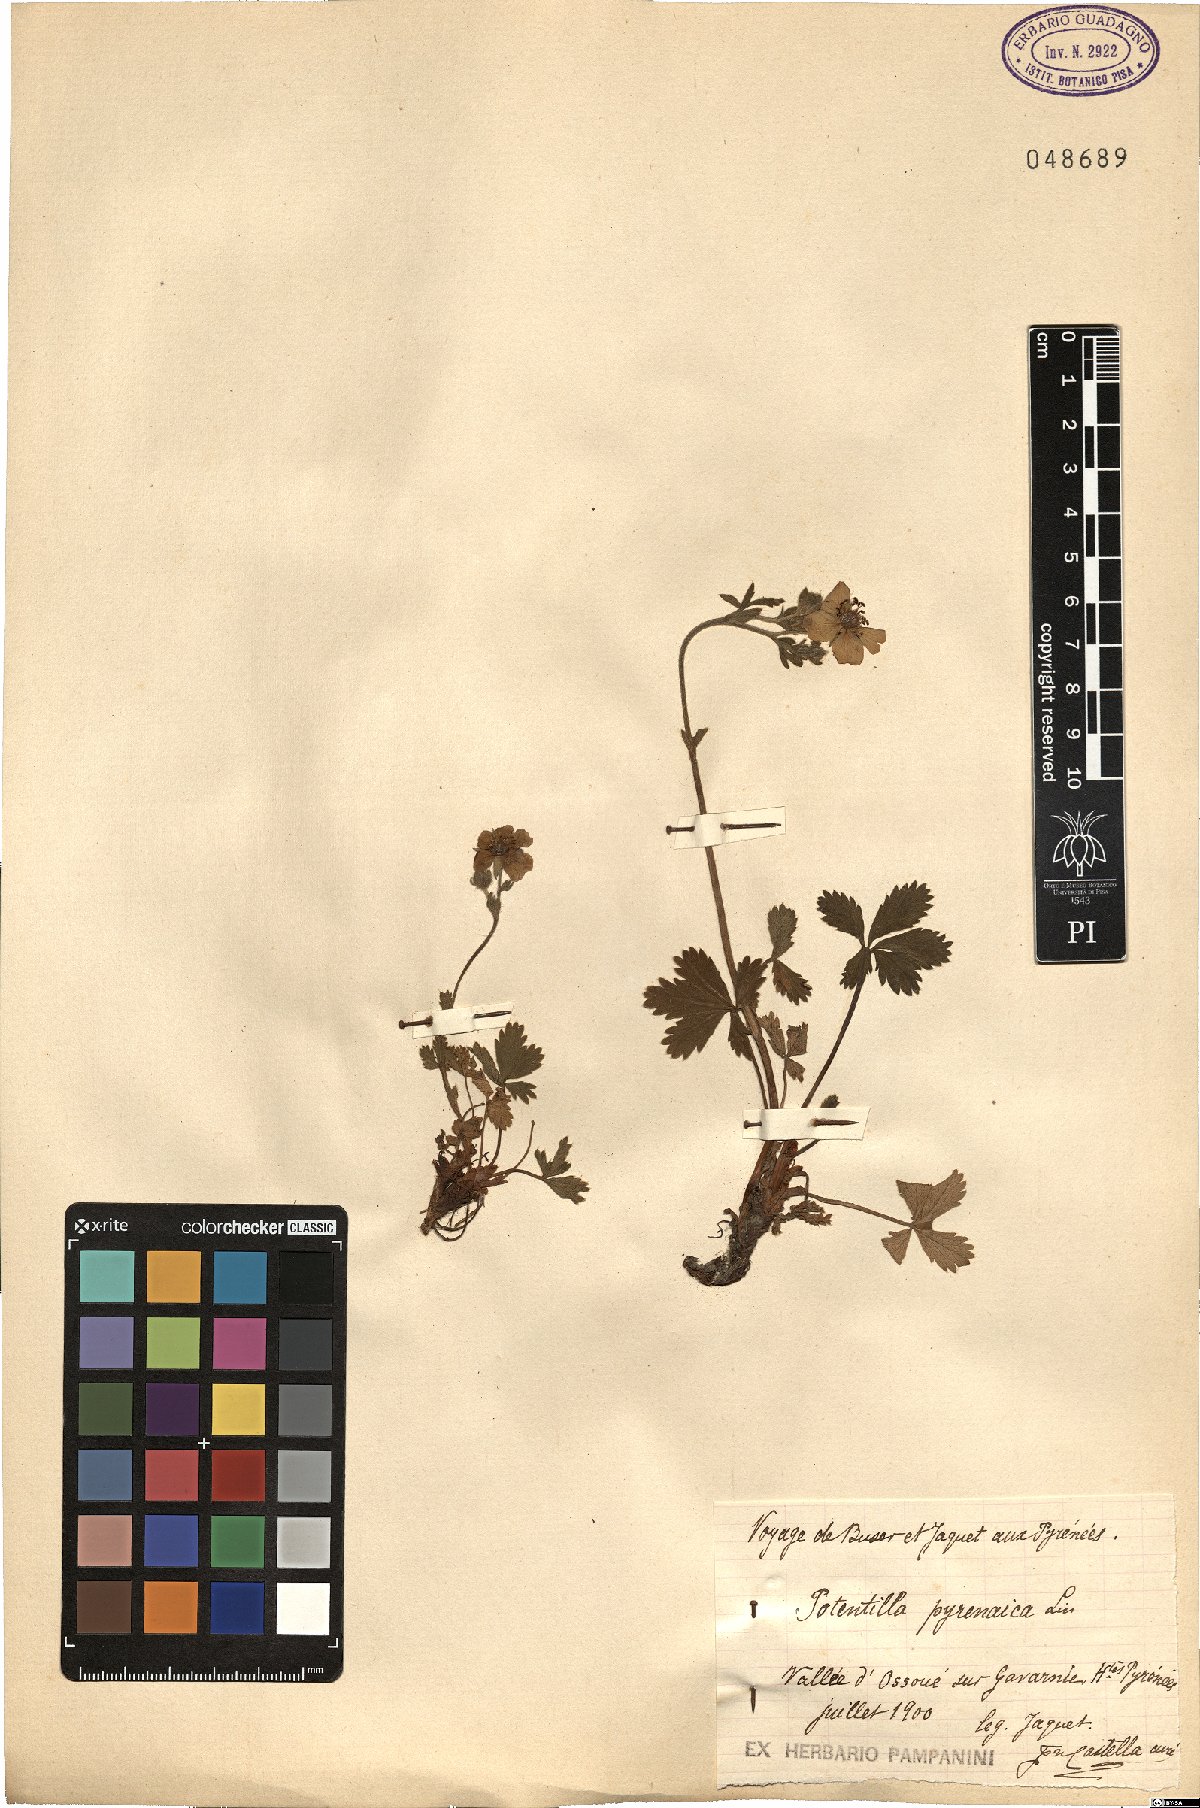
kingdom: Plantae
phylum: Tracheophyta
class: Magnoliopsida
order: Rosales
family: Rosaceae
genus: Potentilla
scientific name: Potentilla alchimilloides
